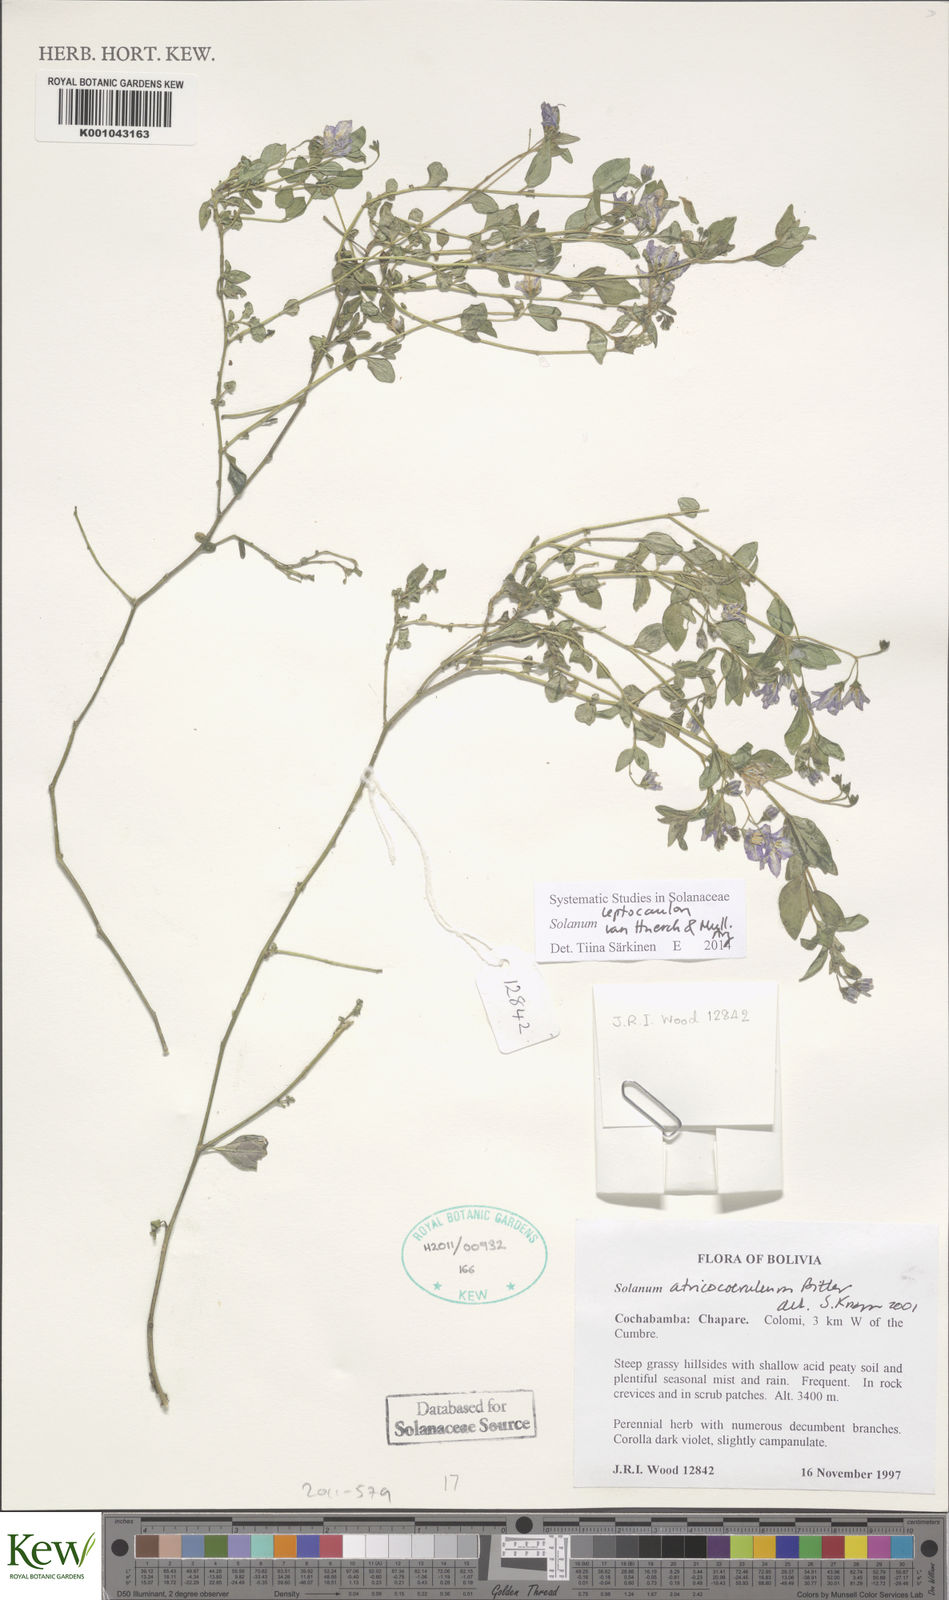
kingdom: Plantae
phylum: Tracheophyta
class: Magnoliopsida
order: Solanales
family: Solanaceae
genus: Solanum
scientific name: Solanum
